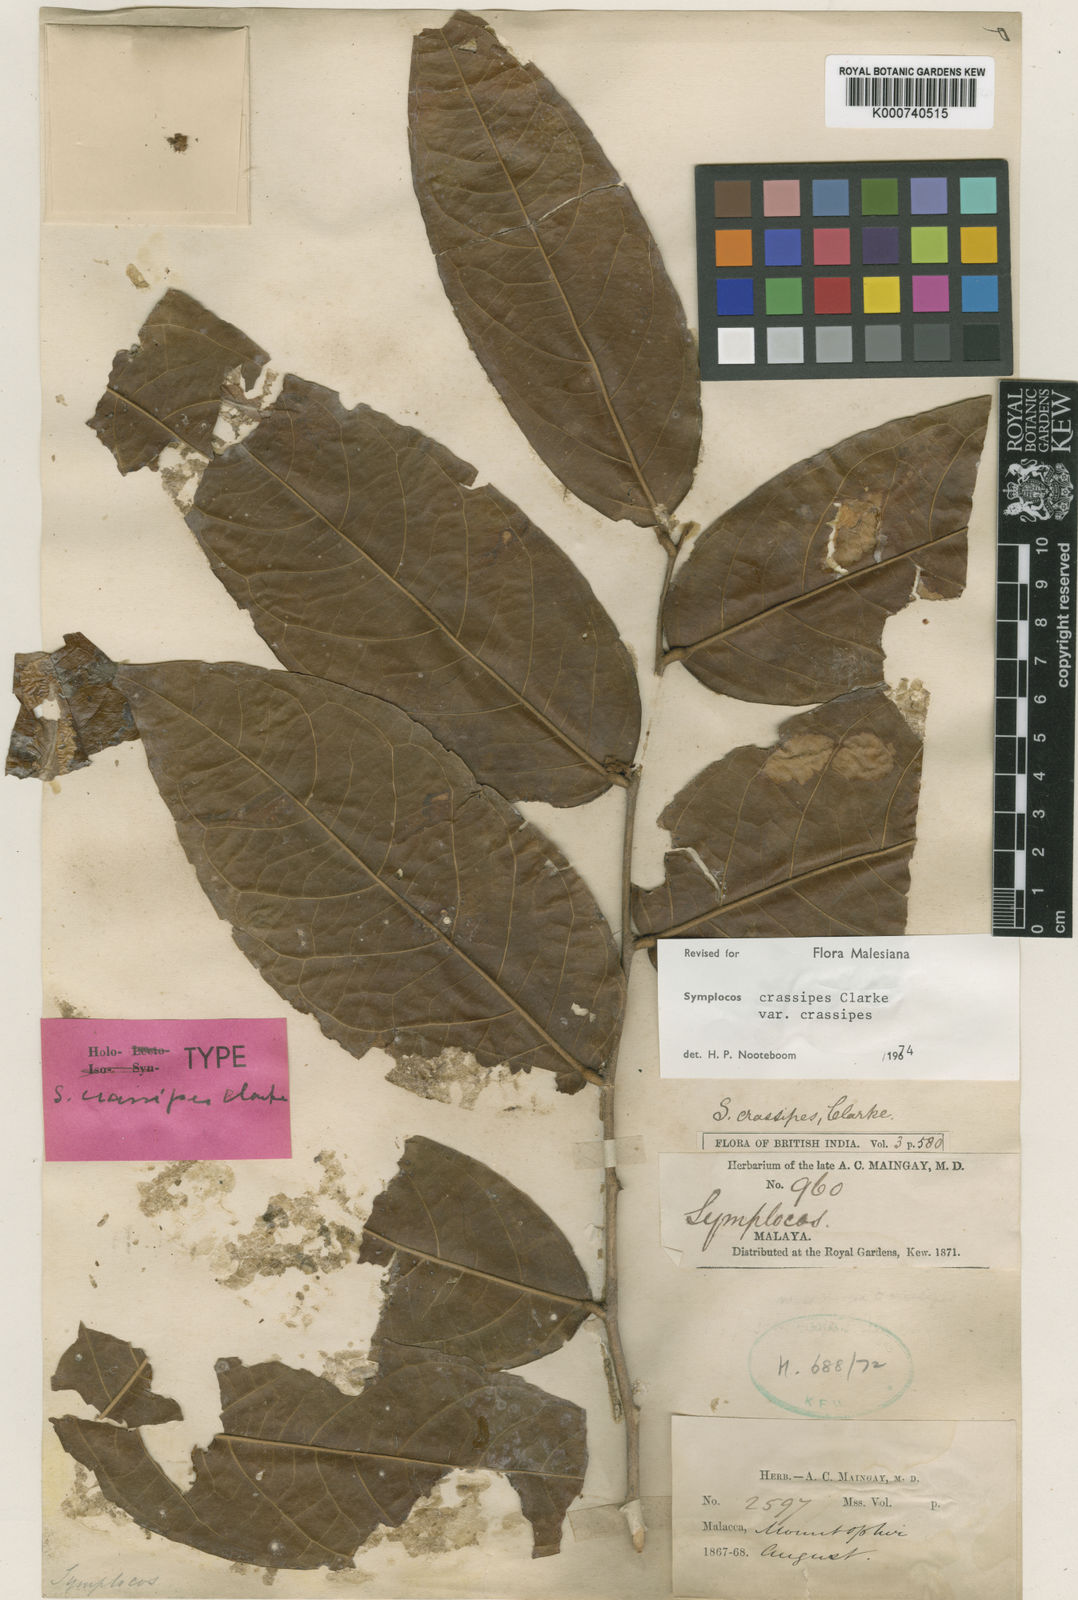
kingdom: Plantae
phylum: Tracheophyta
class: Magnoliopsida
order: Ericales
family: Symplocaceae
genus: Symplocos
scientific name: Symplocos crassipes
